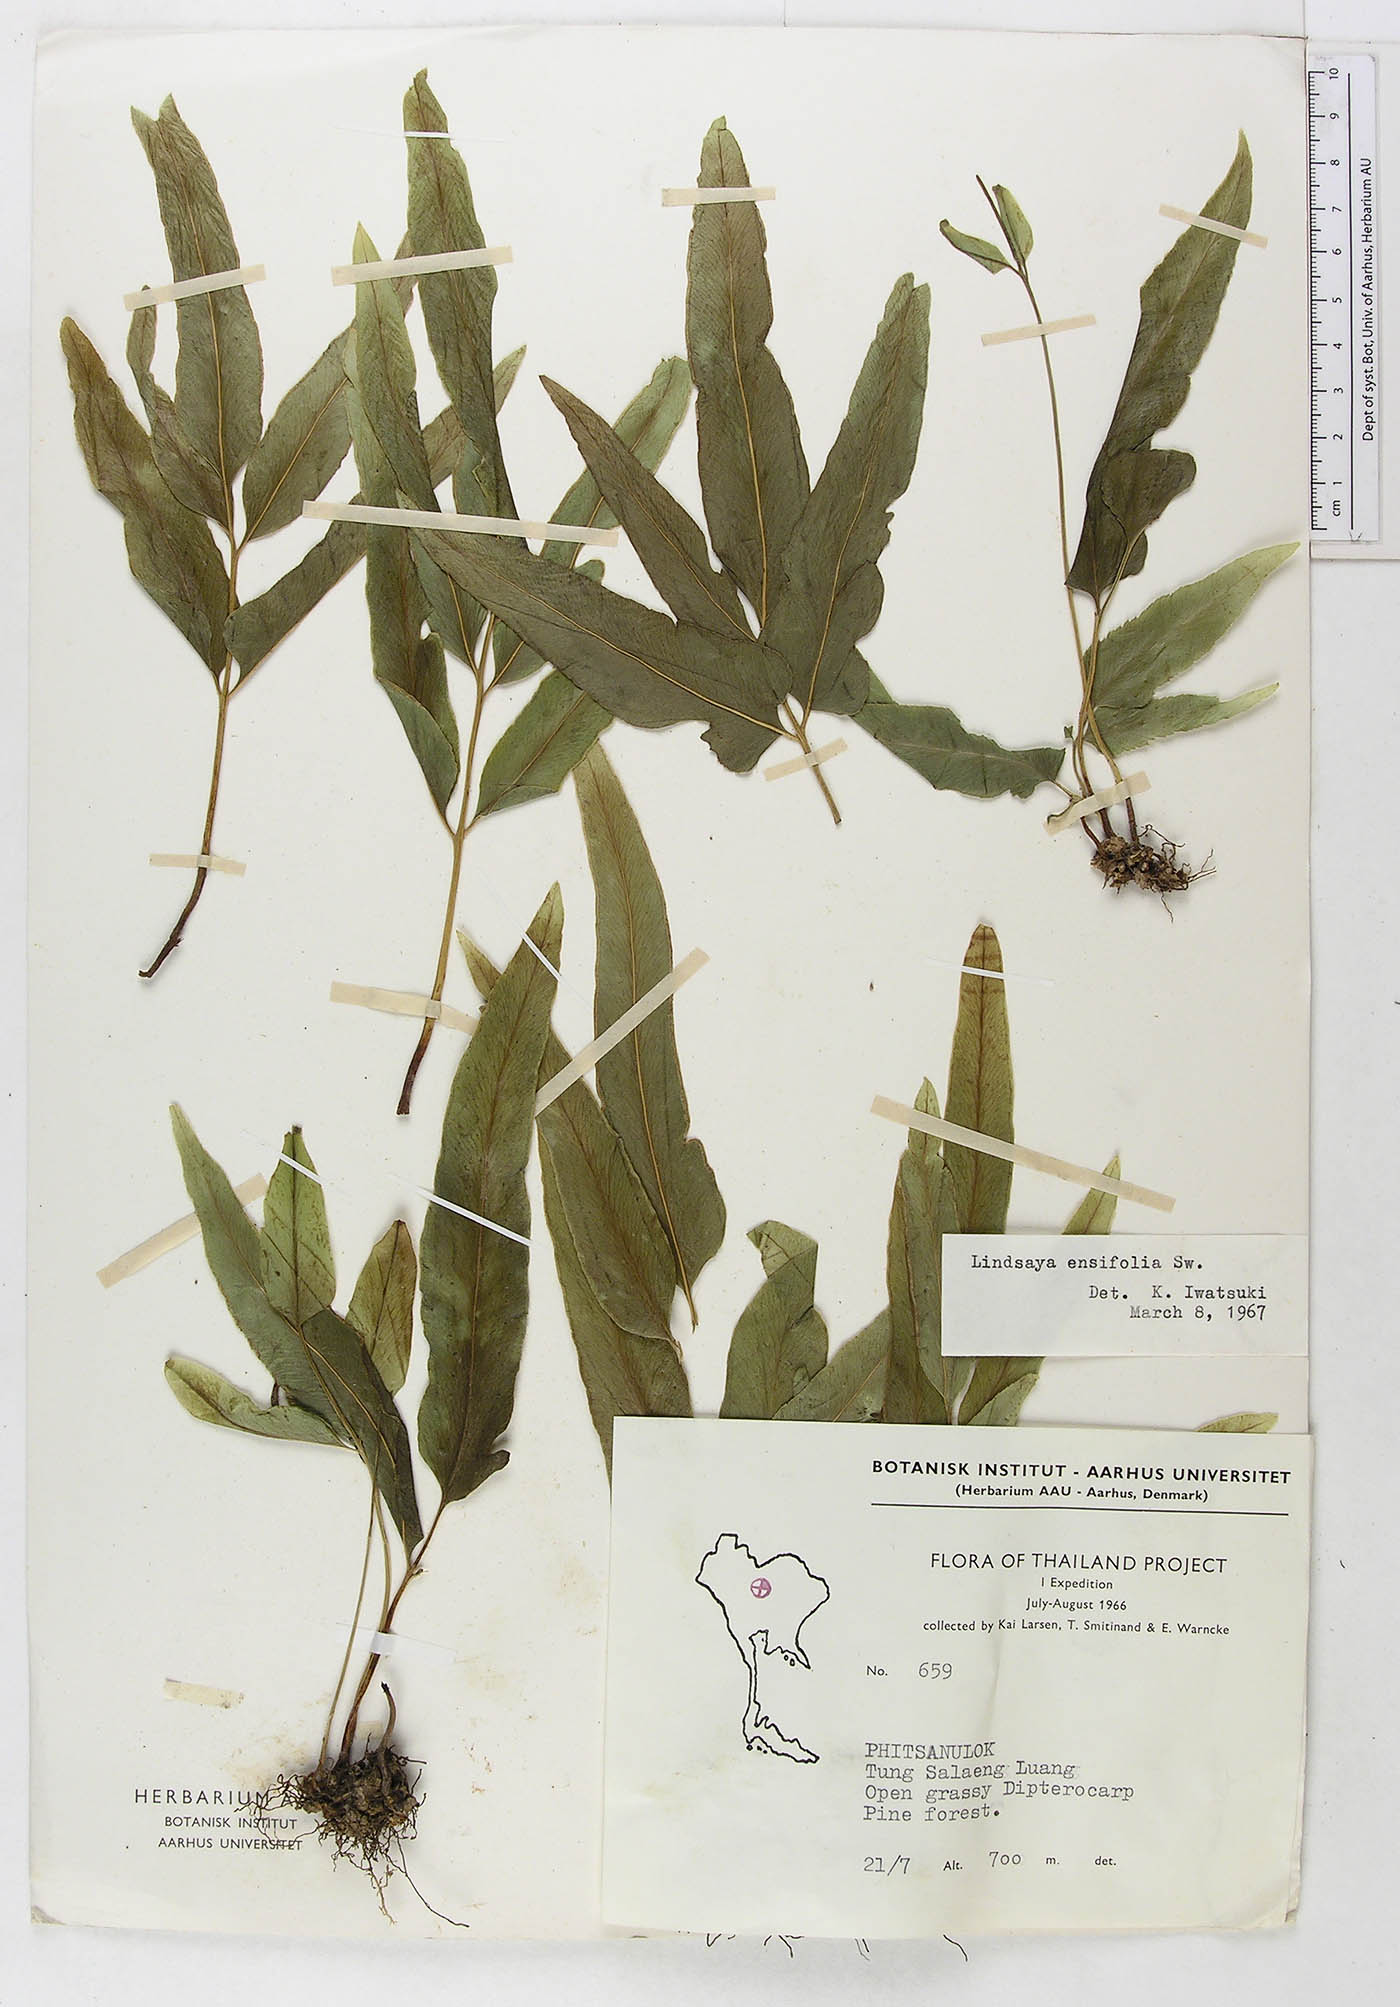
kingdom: Plantae
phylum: Tracheophyta
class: Polypodiopsida
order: Polypodiales
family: Lindsaeaceae
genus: Lindsaea
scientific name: Lindsaea ensifolia
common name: Graceful necklace fern
